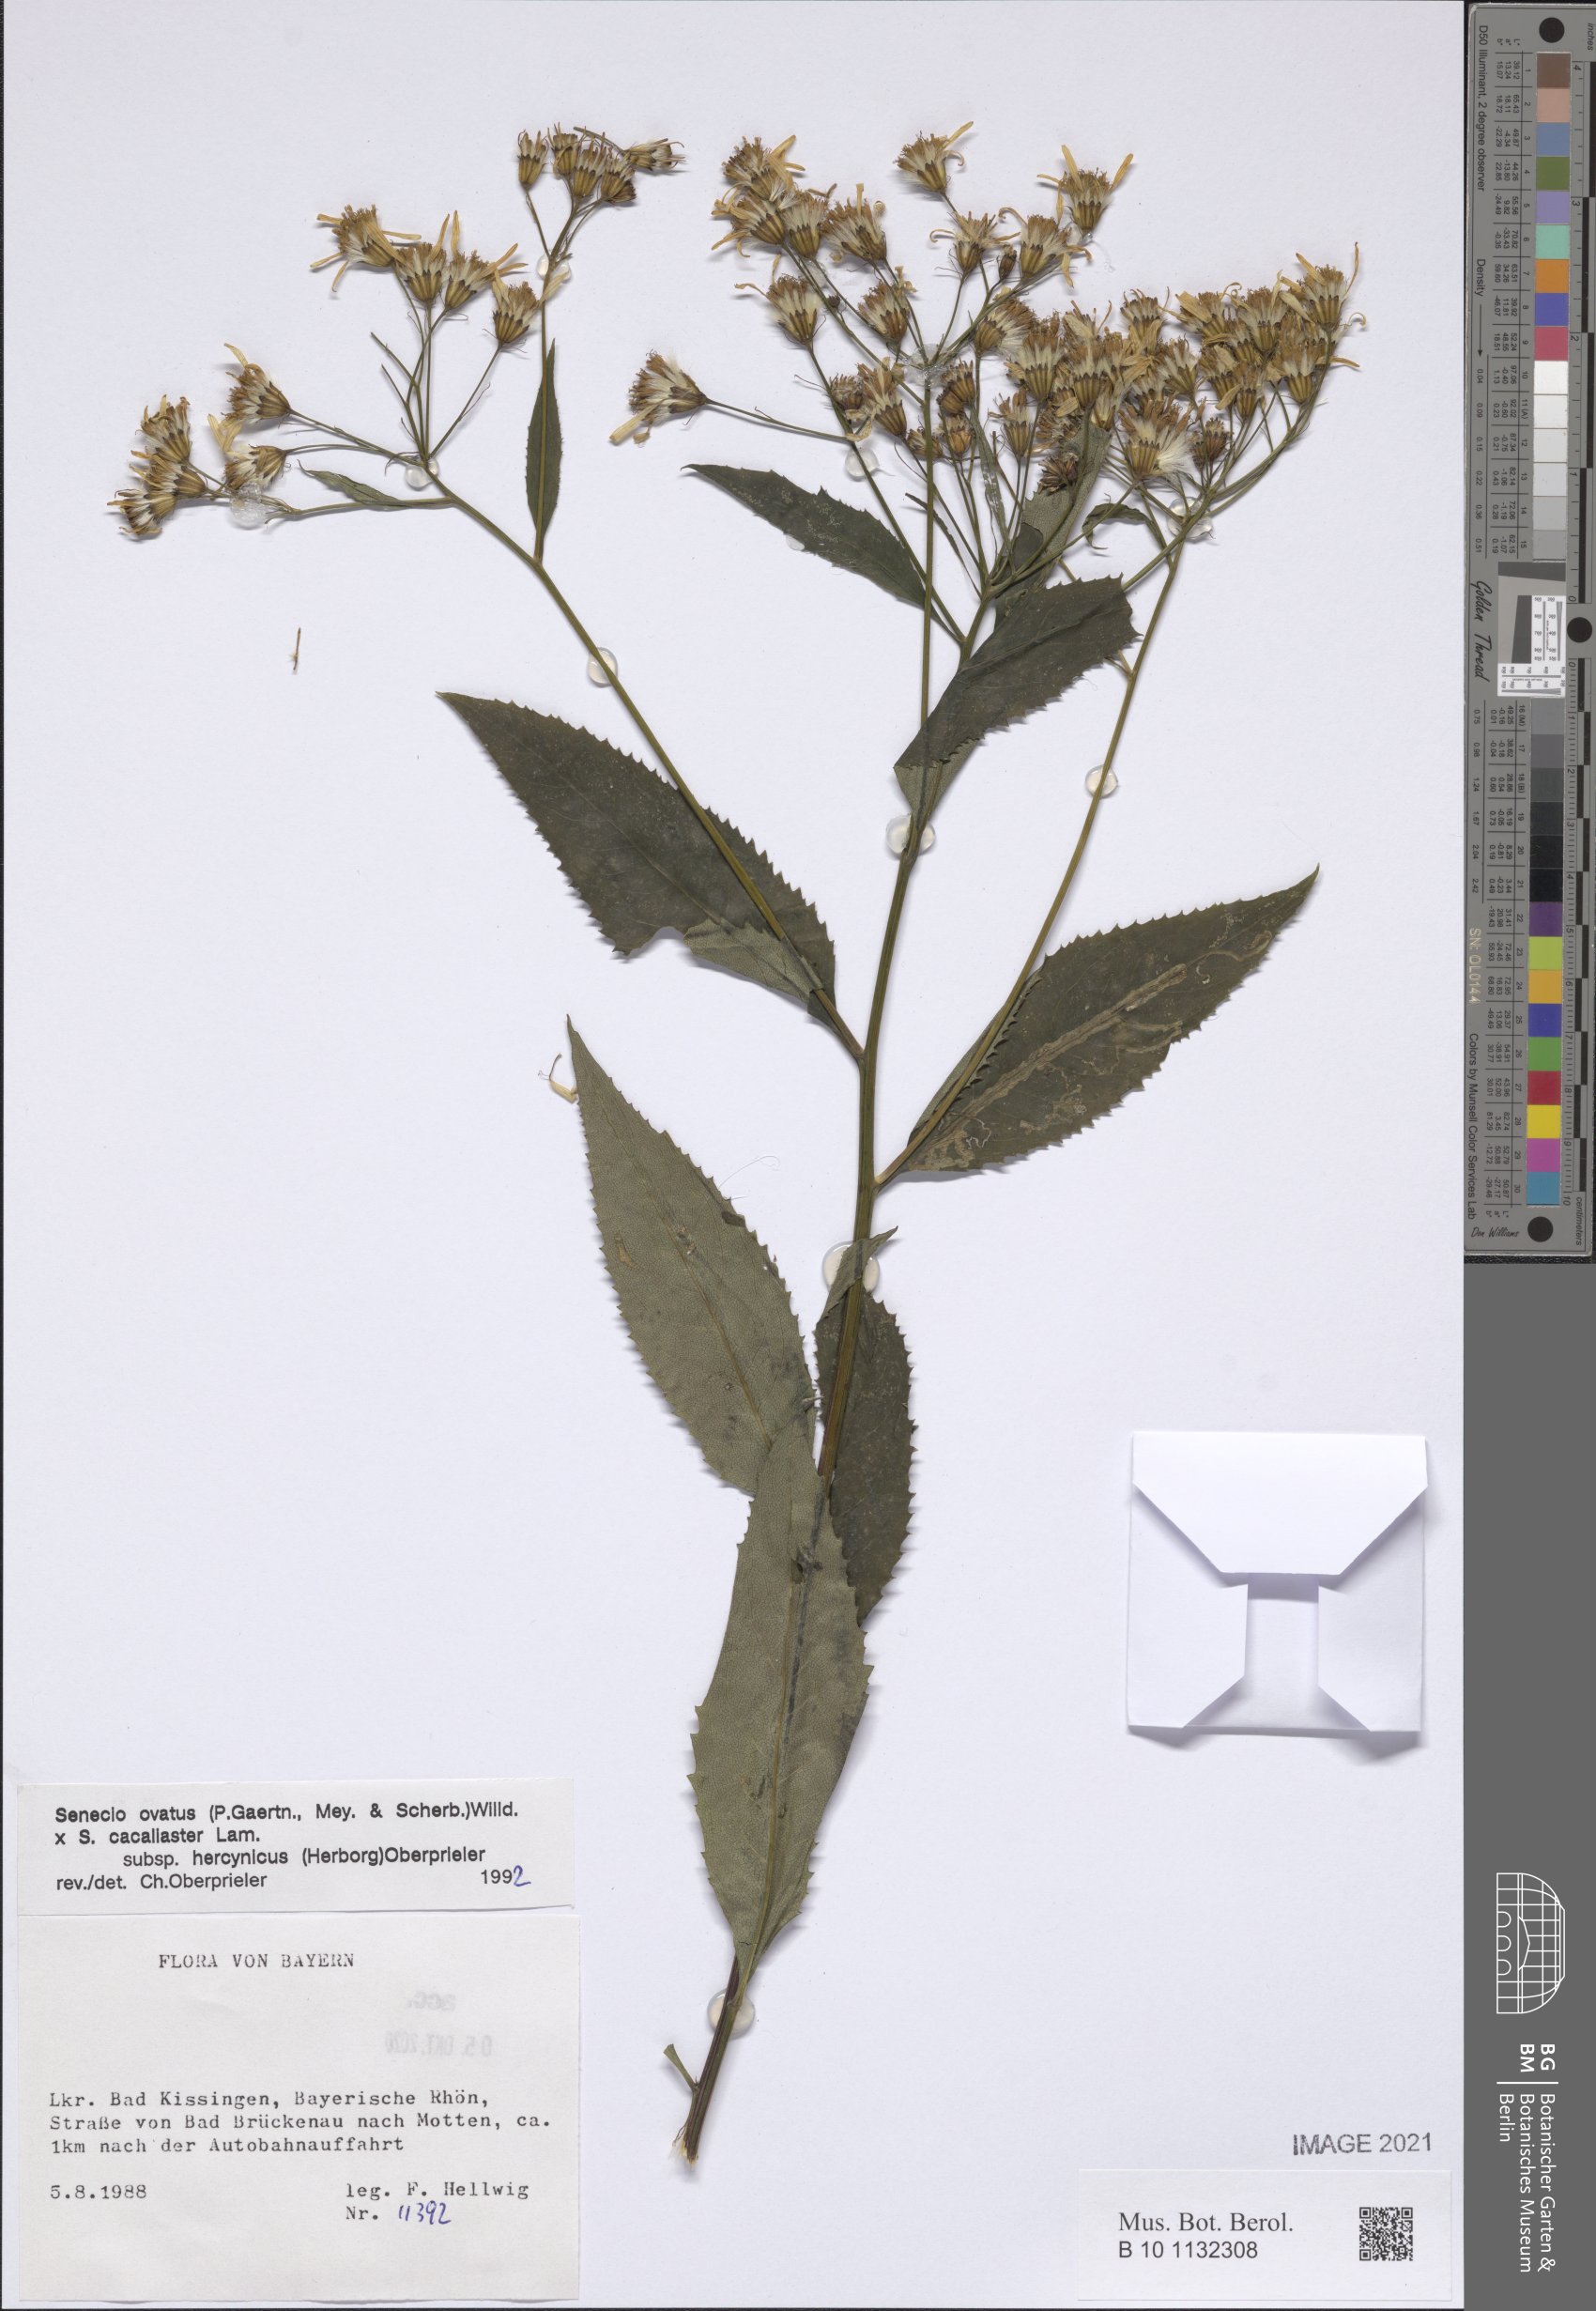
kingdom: Plantae
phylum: Tracheophyta
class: Magnoliopsida
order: Asterales
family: Asteraceae
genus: Senecio
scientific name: Senecio ovatus
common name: Wood ragwort
